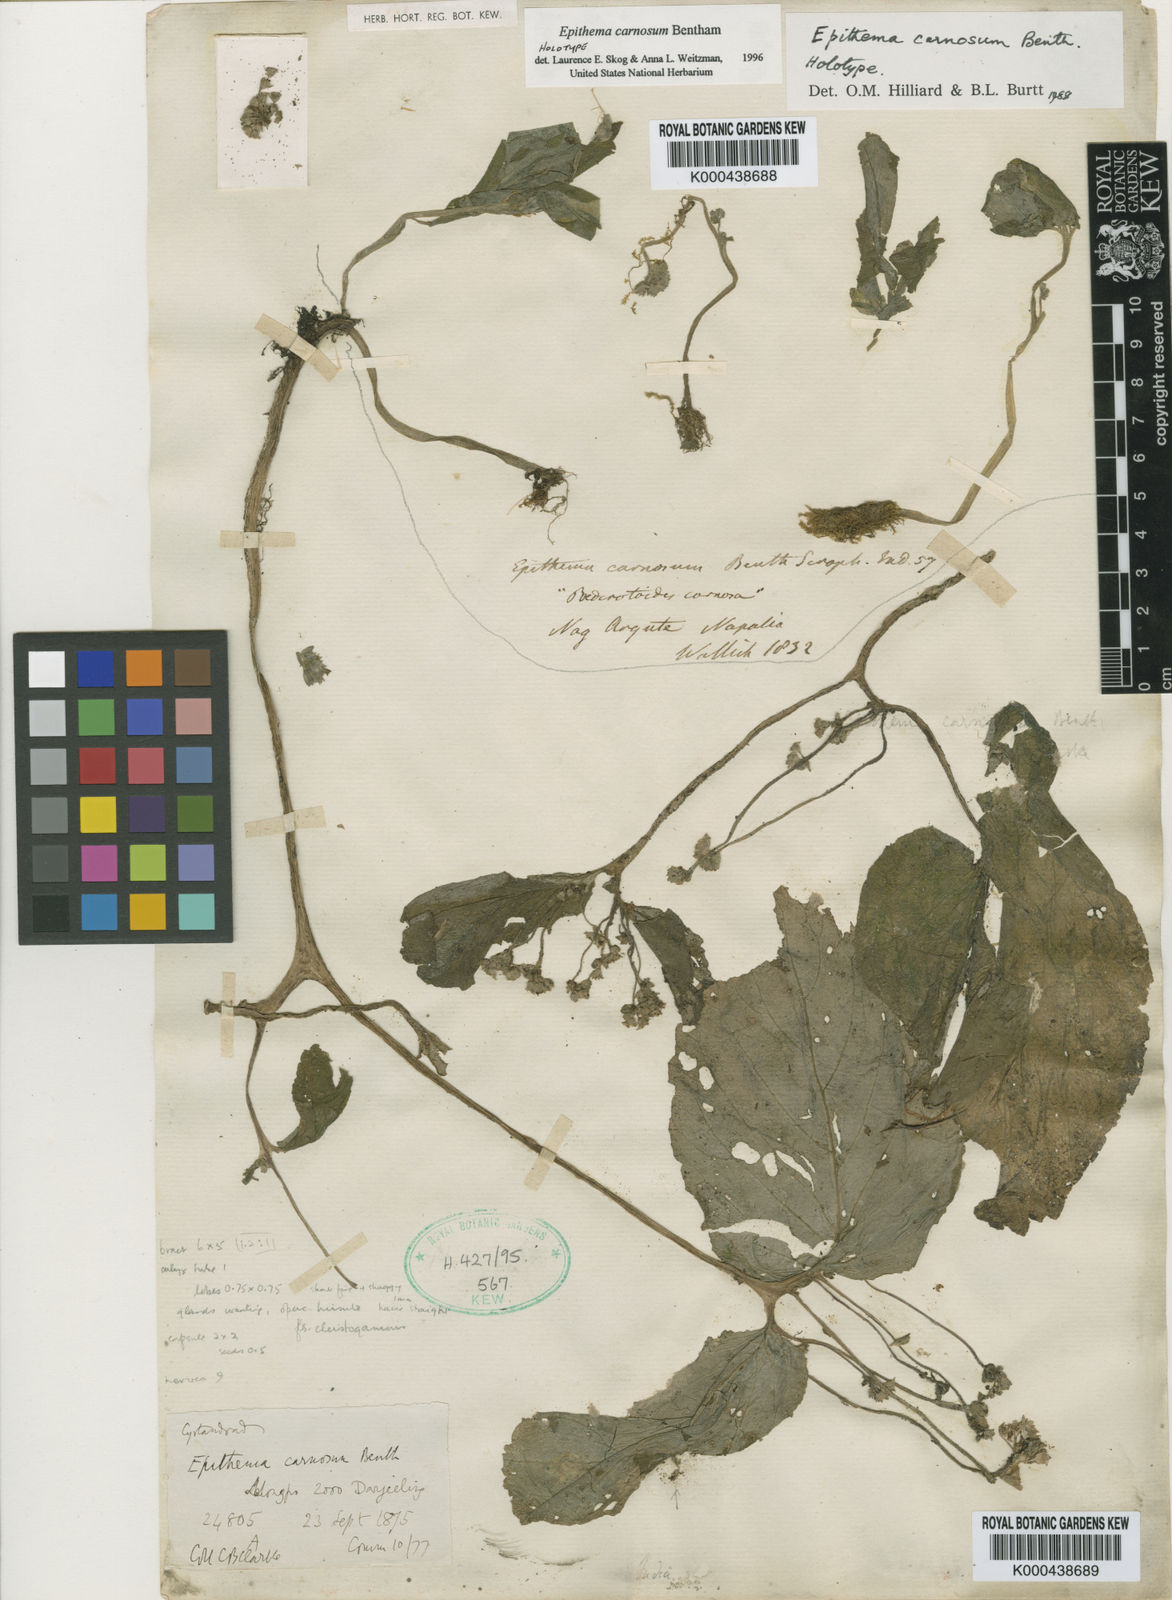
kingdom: Plantae
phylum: Tracheophyta
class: Magnoliopsida
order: Lamiales
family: Gesneriaceae
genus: Epithema
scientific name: Epithema carnosum
